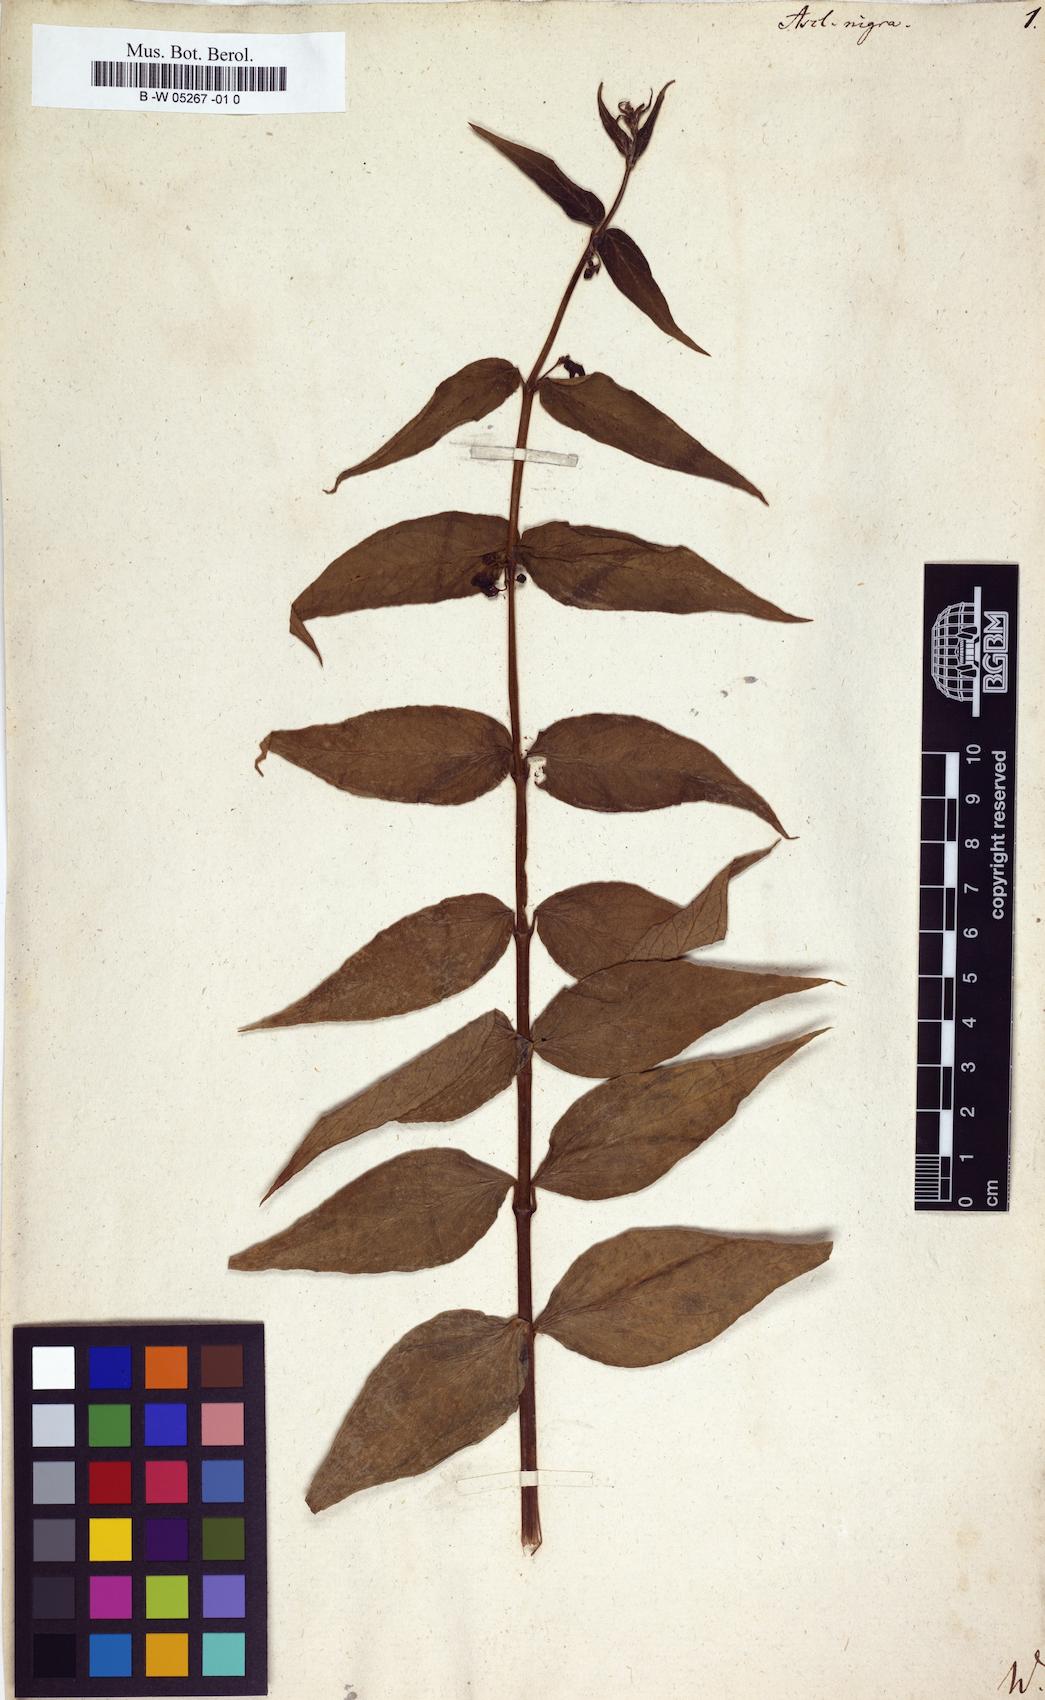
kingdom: Plantae
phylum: Tracheophyta
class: Magnoliopsida
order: Gentianales
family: Apocynaceae
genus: Vincetoxicum
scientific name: Vincetoxicum nigrum
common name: Black swallow-wort
